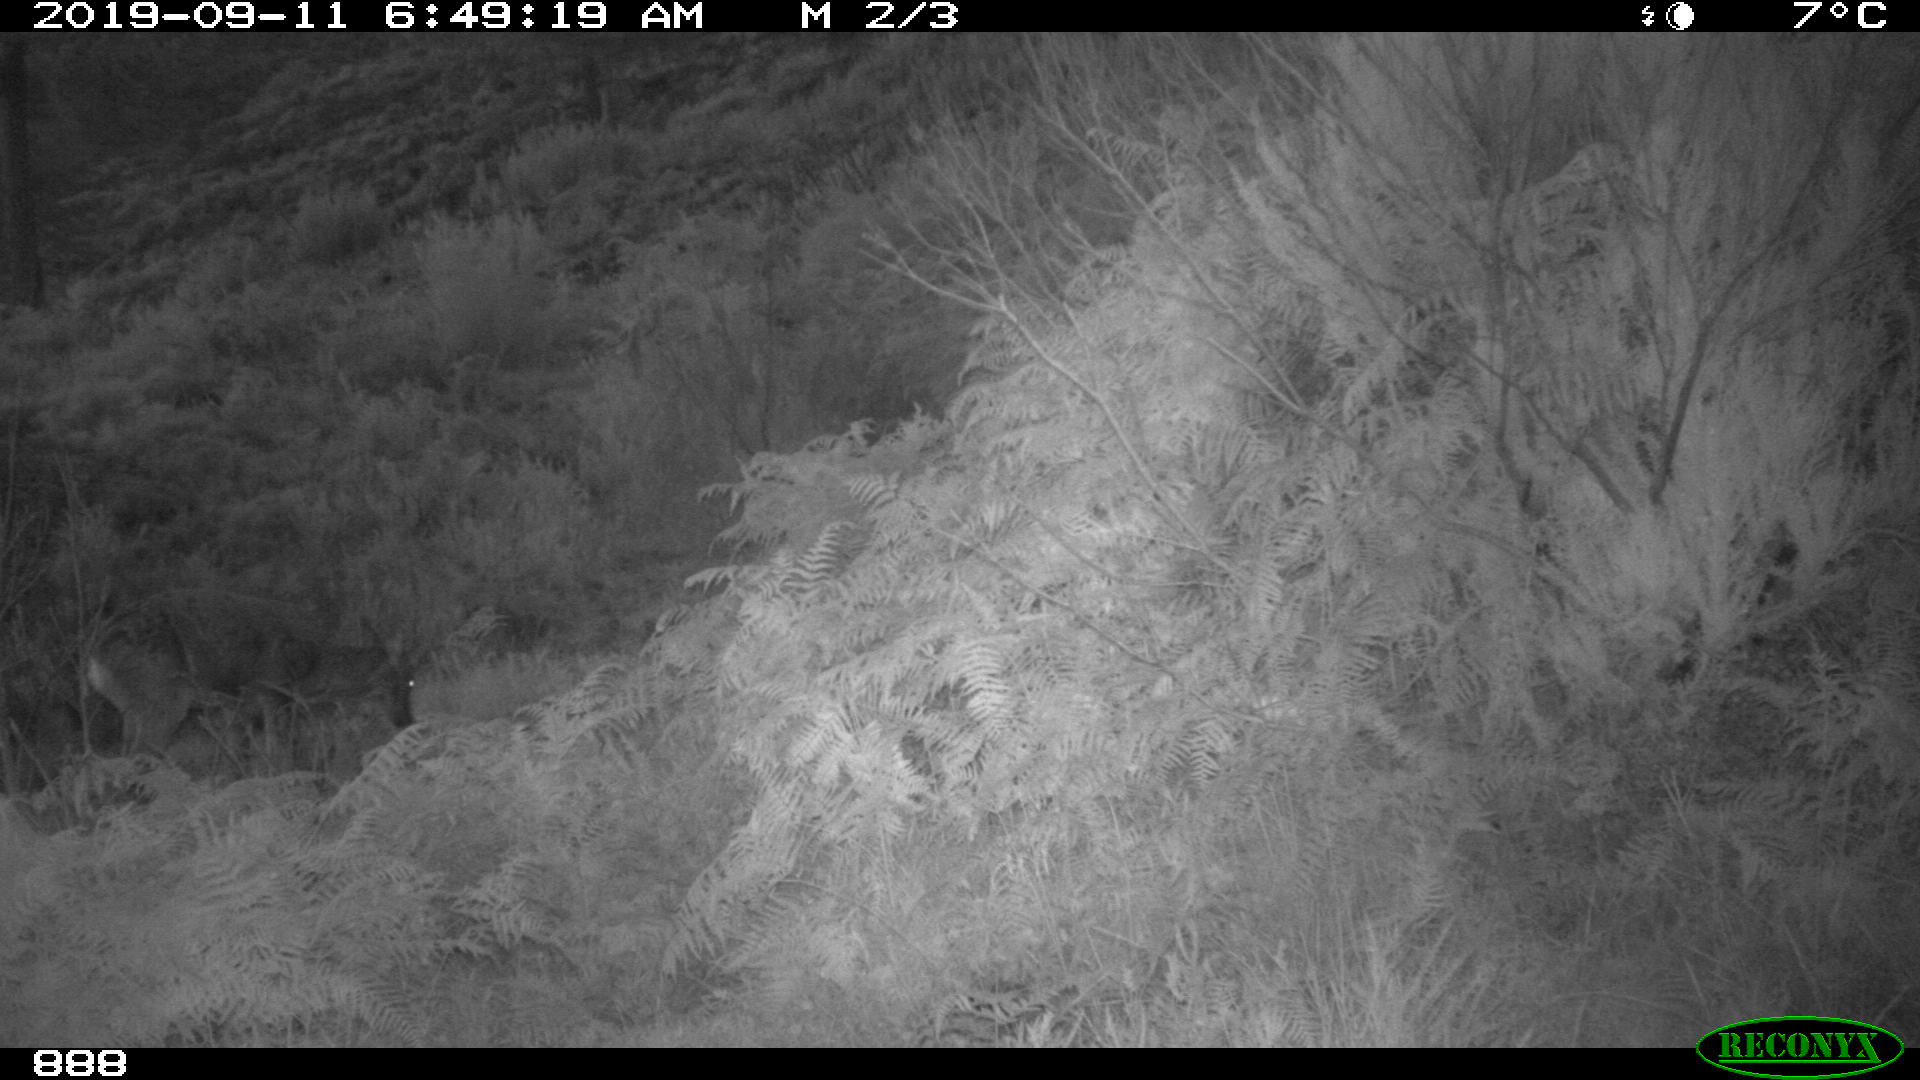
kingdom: Animalia
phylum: Chordata
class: Mammalia
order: Artiodactyla
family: Cervidae
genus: Capreolus
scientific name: Capreolus capreolus
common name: Western roe deer
